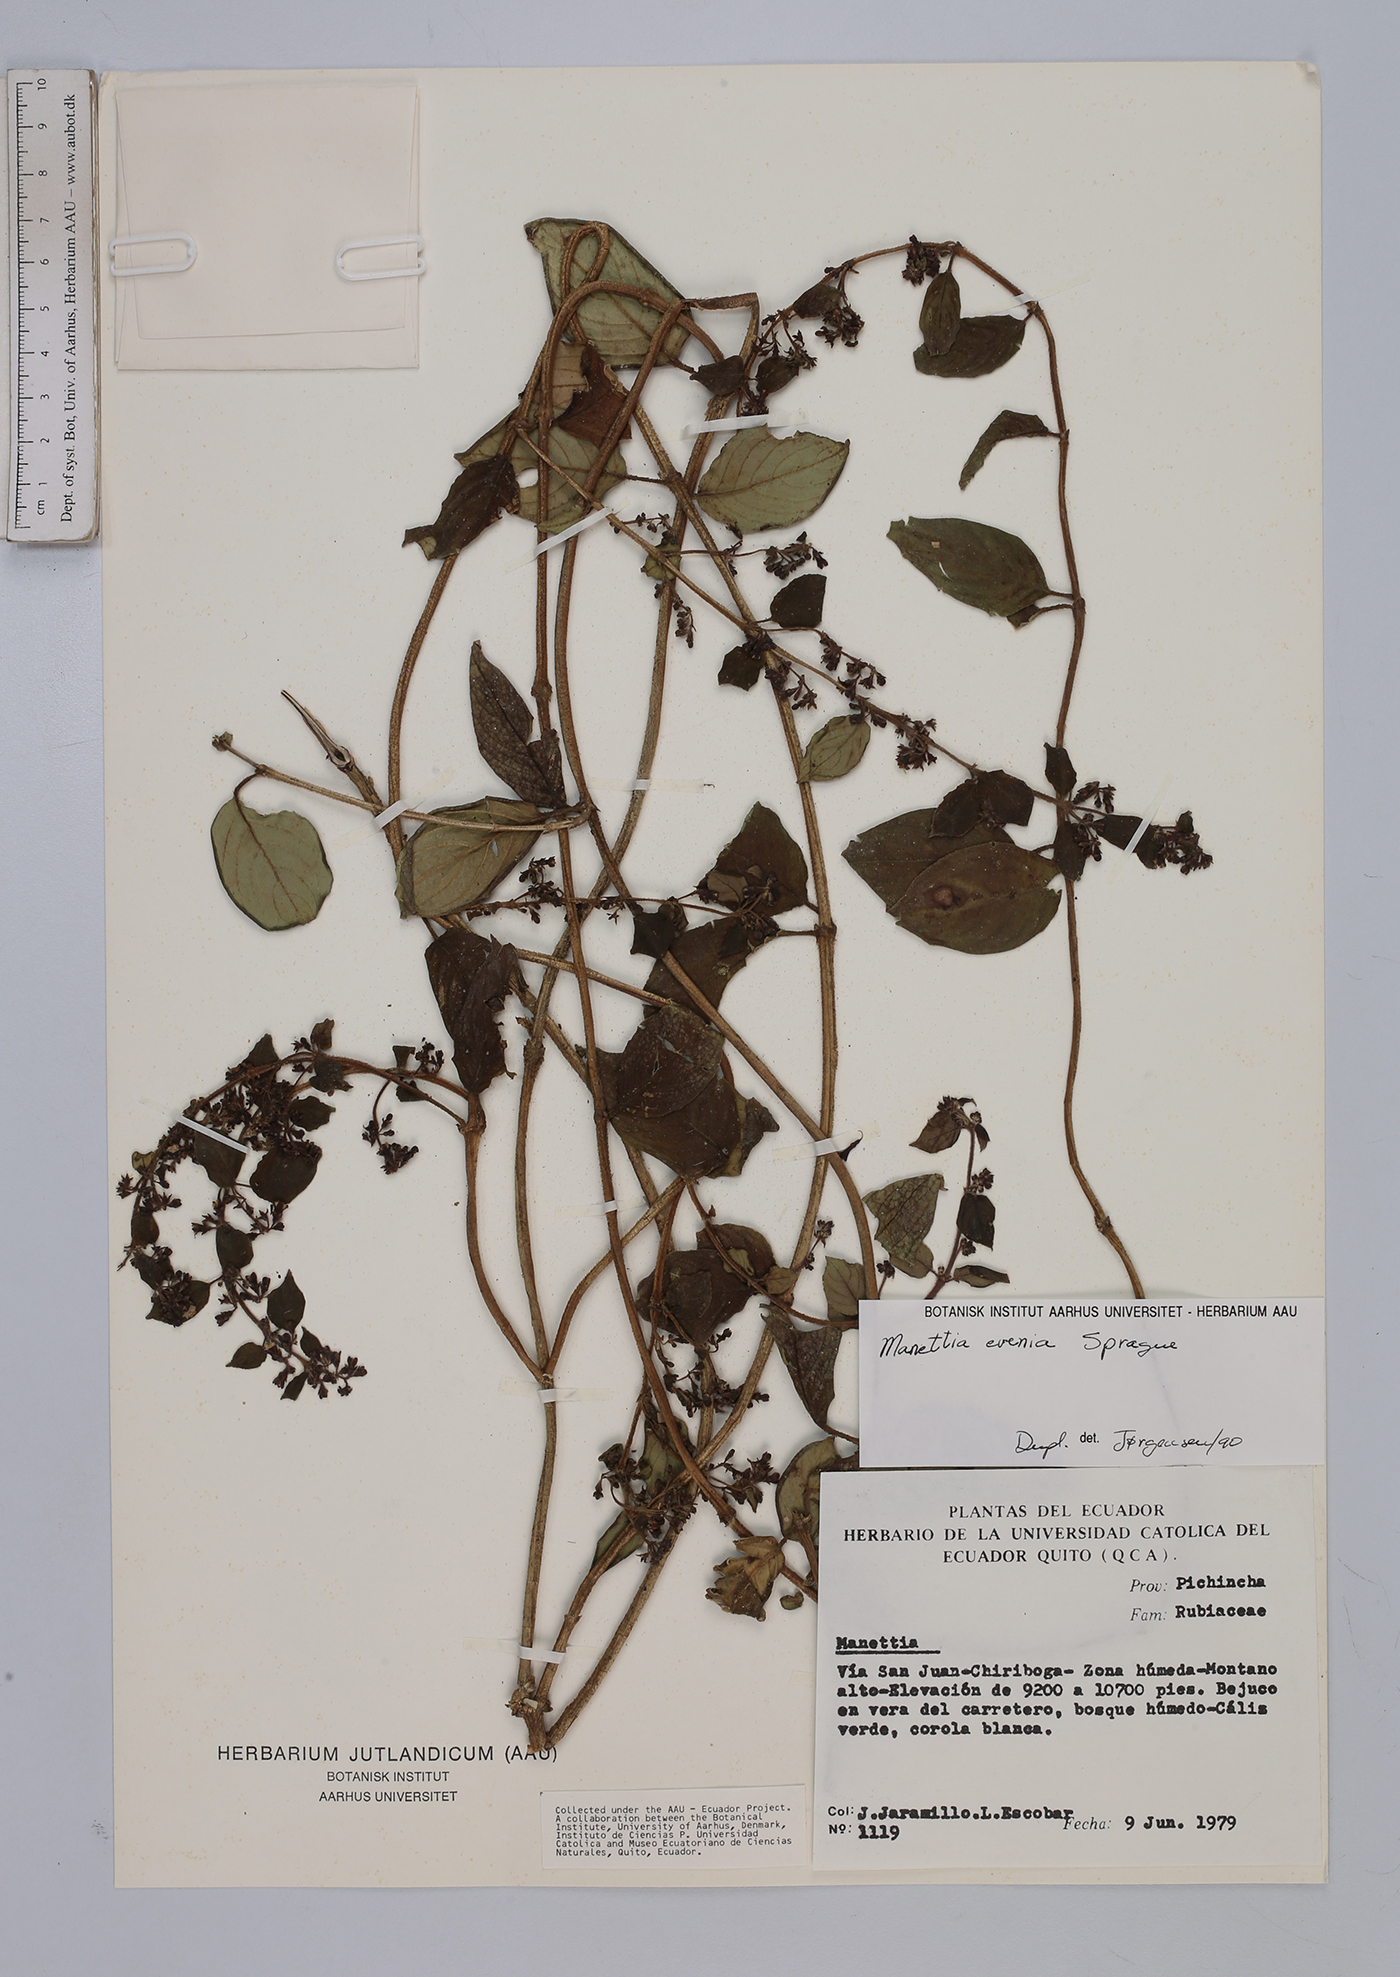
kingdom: Plantae
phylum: Tracheophyta
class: Magnoliopsida
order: Gentianales
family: Rubiaceae
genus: Manettia
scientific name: Manettia evenia
